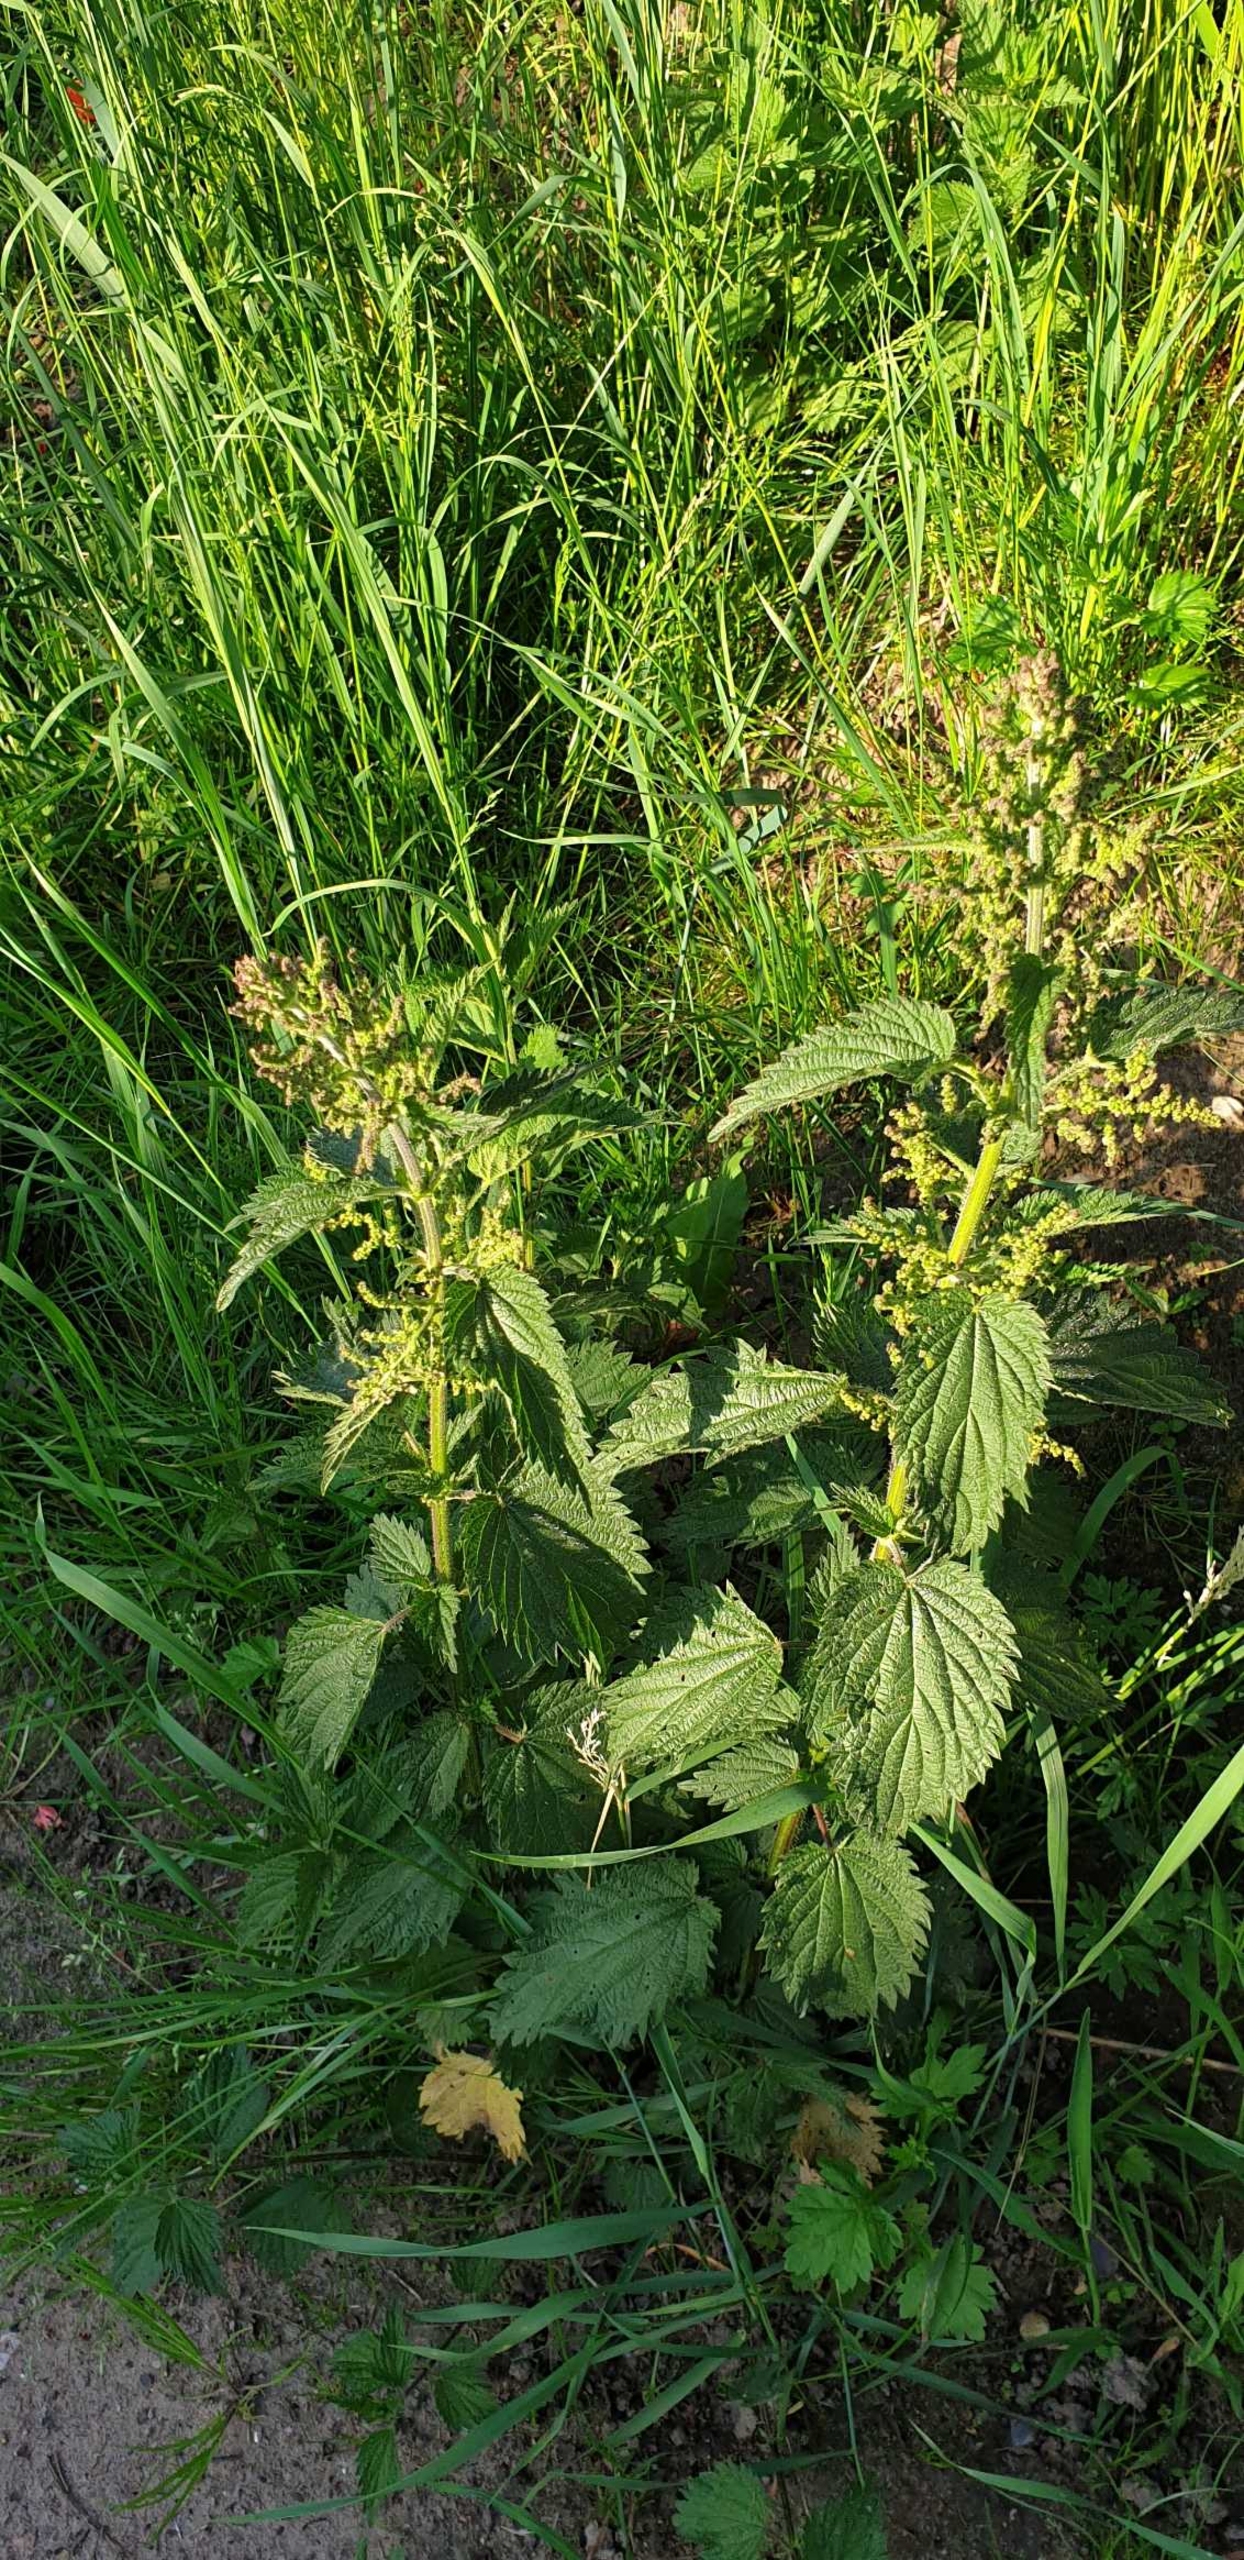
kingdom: Plantae
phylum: Tracheophyta
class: Magnoliopsida
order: Rosales
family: Urticaceae
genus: Urtica
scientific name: Urtica dioica
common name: Stor nælde
